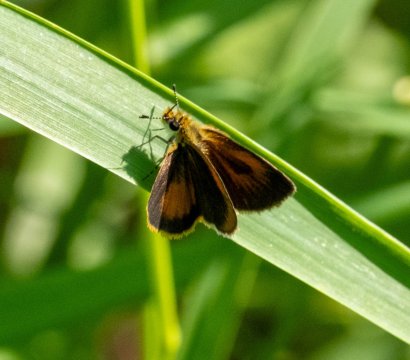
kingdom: Animalia
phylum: Arthropoda
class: Insecta
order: Lepidoptera
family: Hesperiidae
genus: Ancyloxypha
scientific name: Ancyloxypha numitor
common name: Least Skipper
